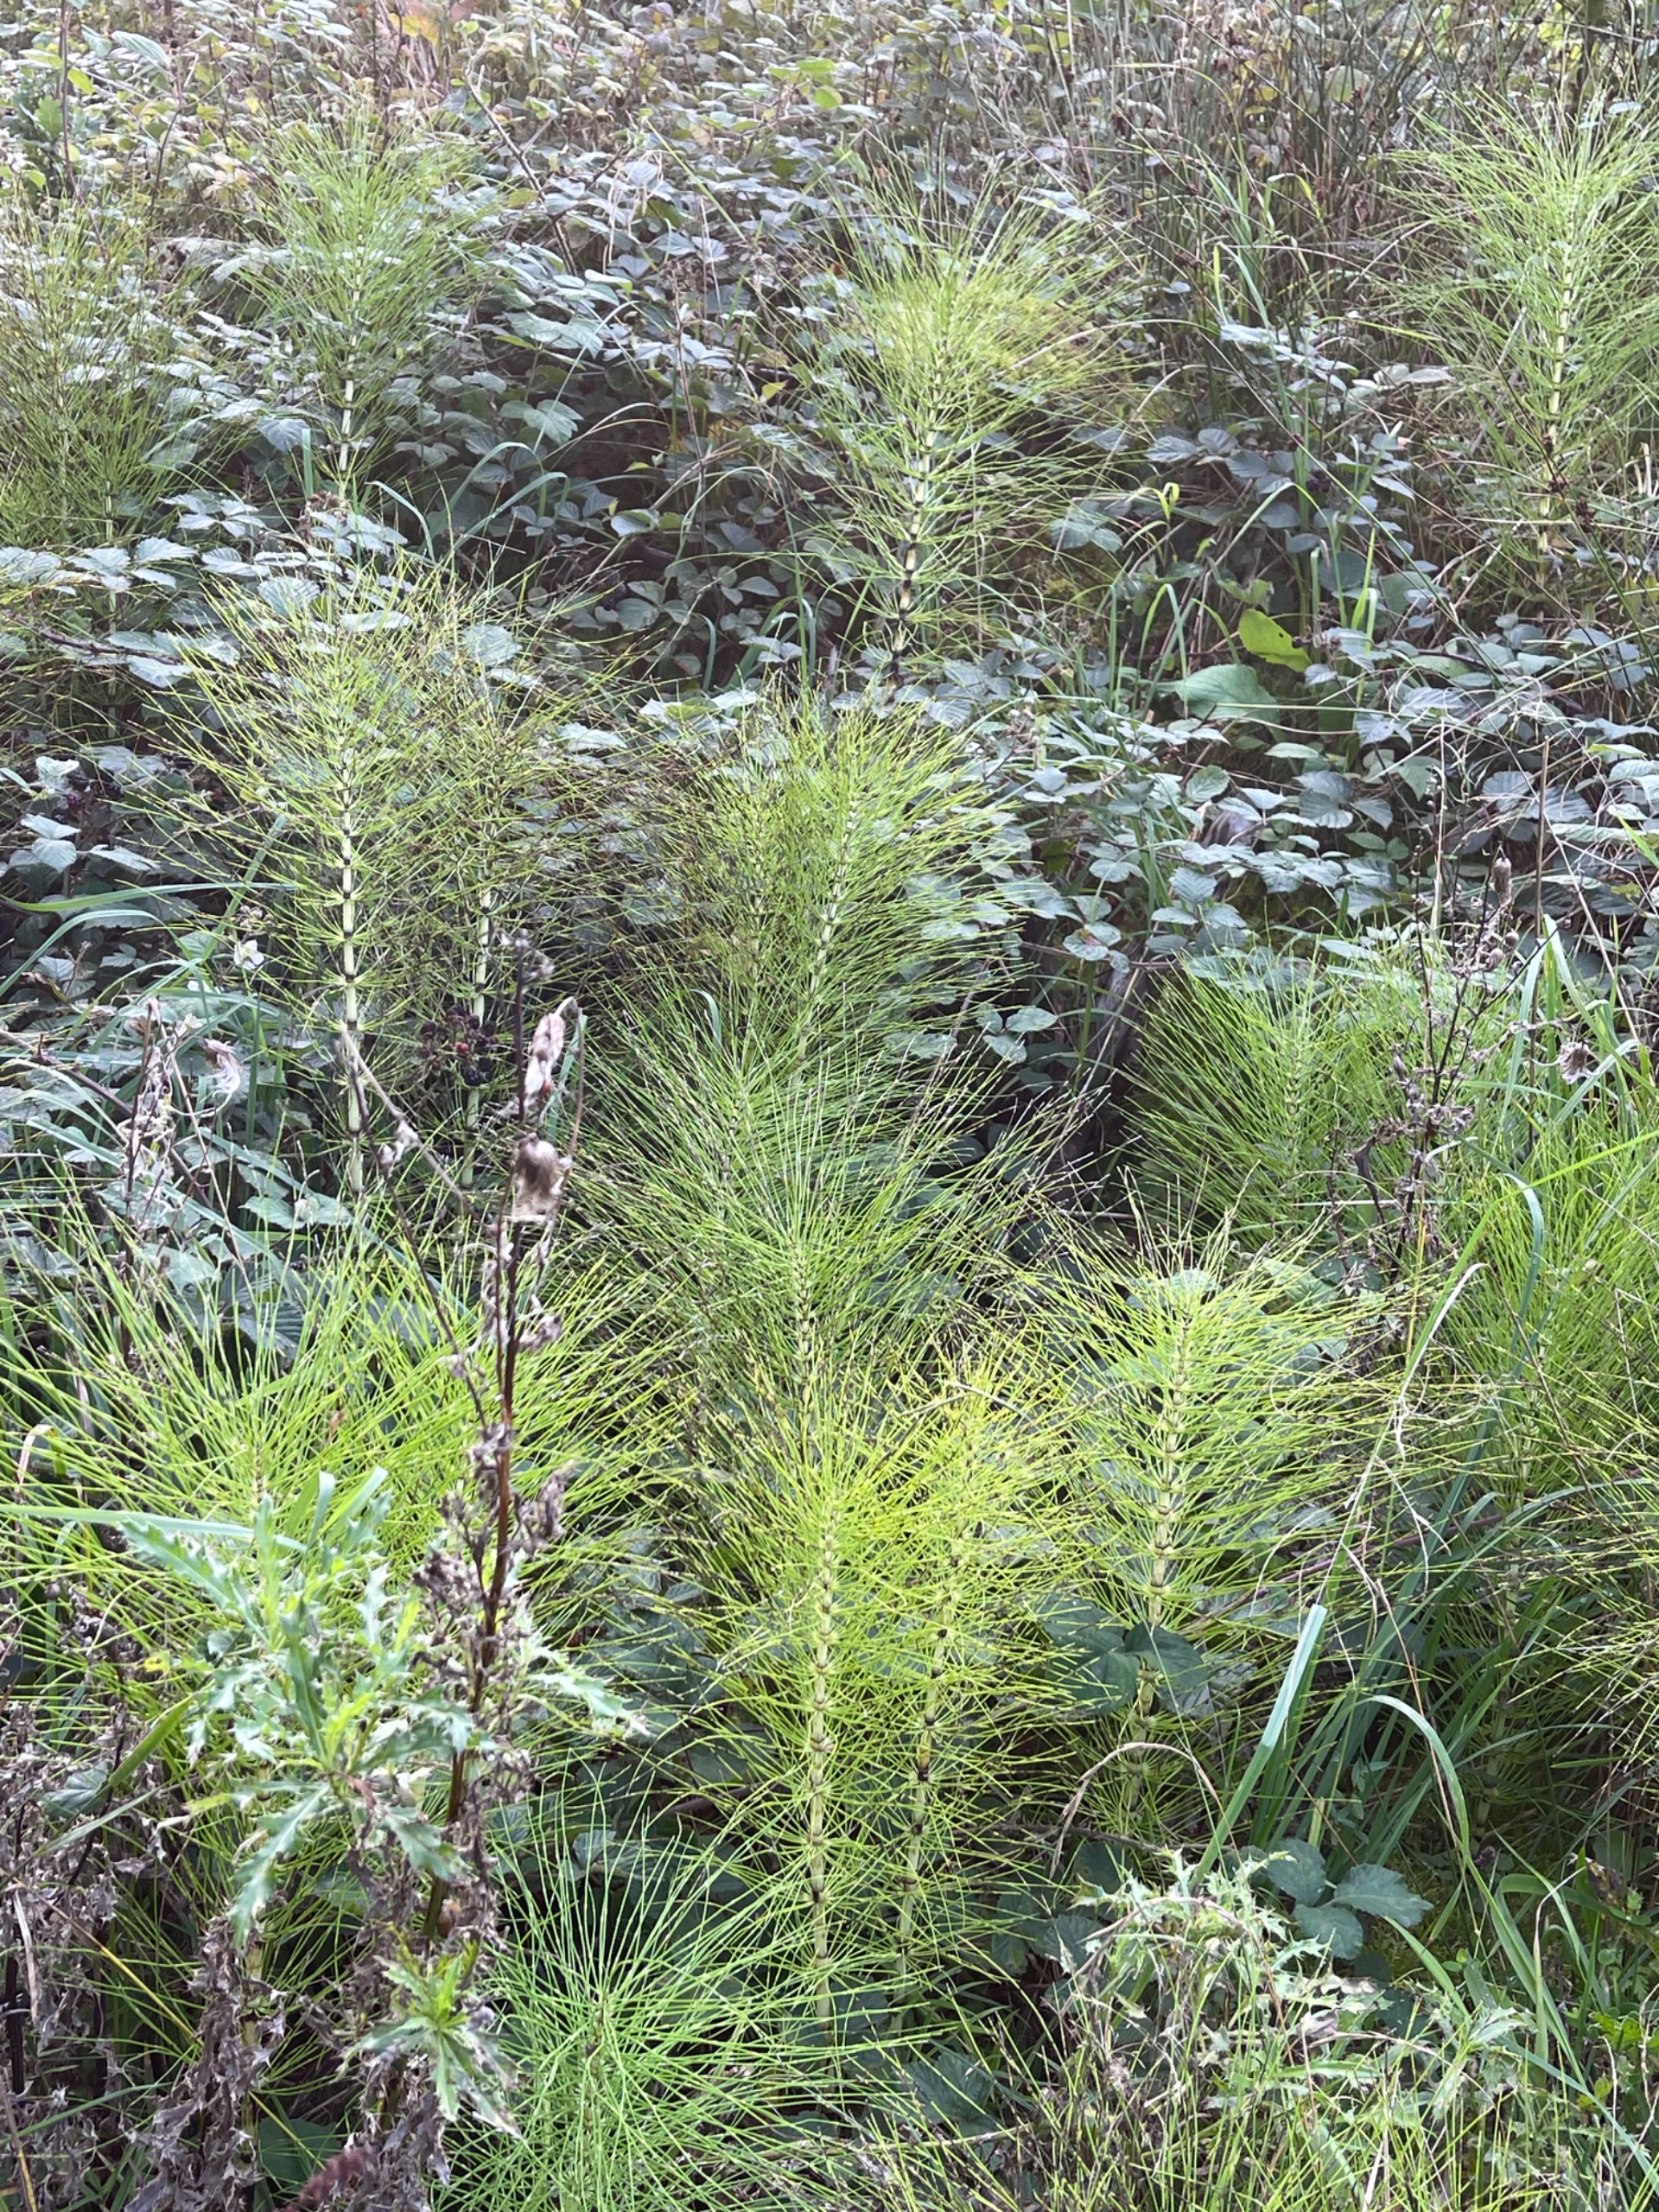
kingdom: Plantae
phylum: Tracheophyta
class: Polypodiopsida
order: Equisetales
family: Equisetaceae
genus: Equisetum
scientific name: Equisetum telmateia
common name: Elfenbens-padderok
